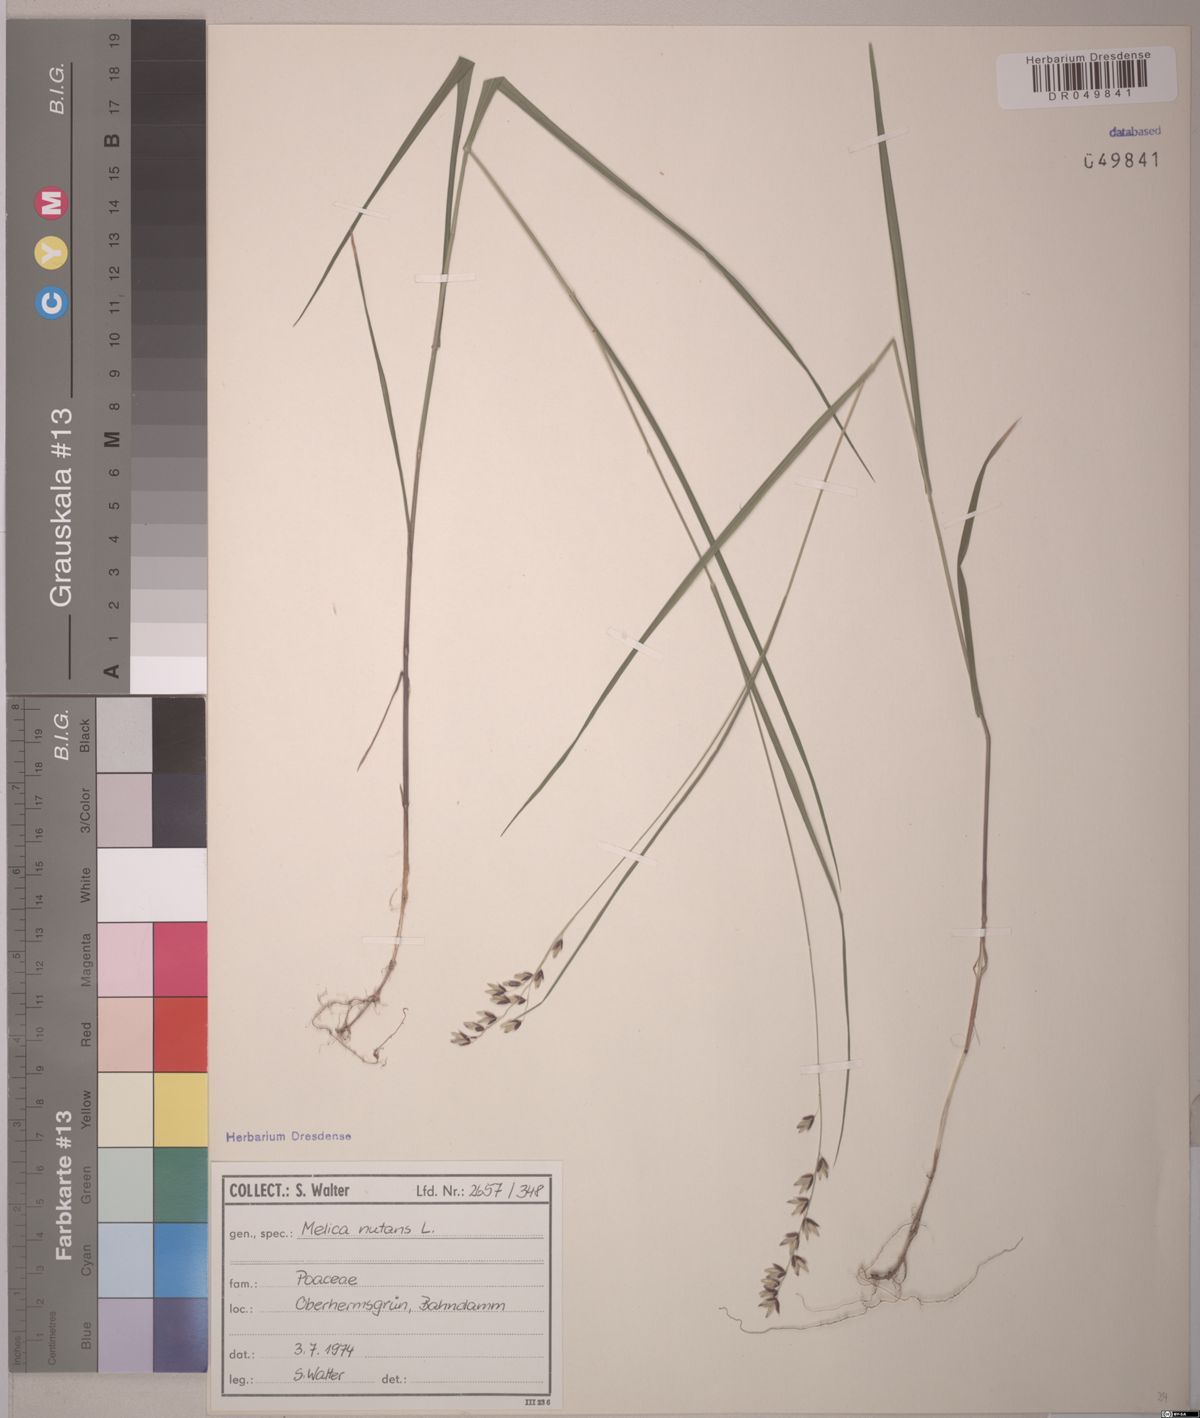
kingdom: Plantae
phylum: Tracheophyta
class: Liliopsida
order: Poales
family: Poaceae
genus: Melica
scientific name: Melica nutans
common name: Mountain melick
